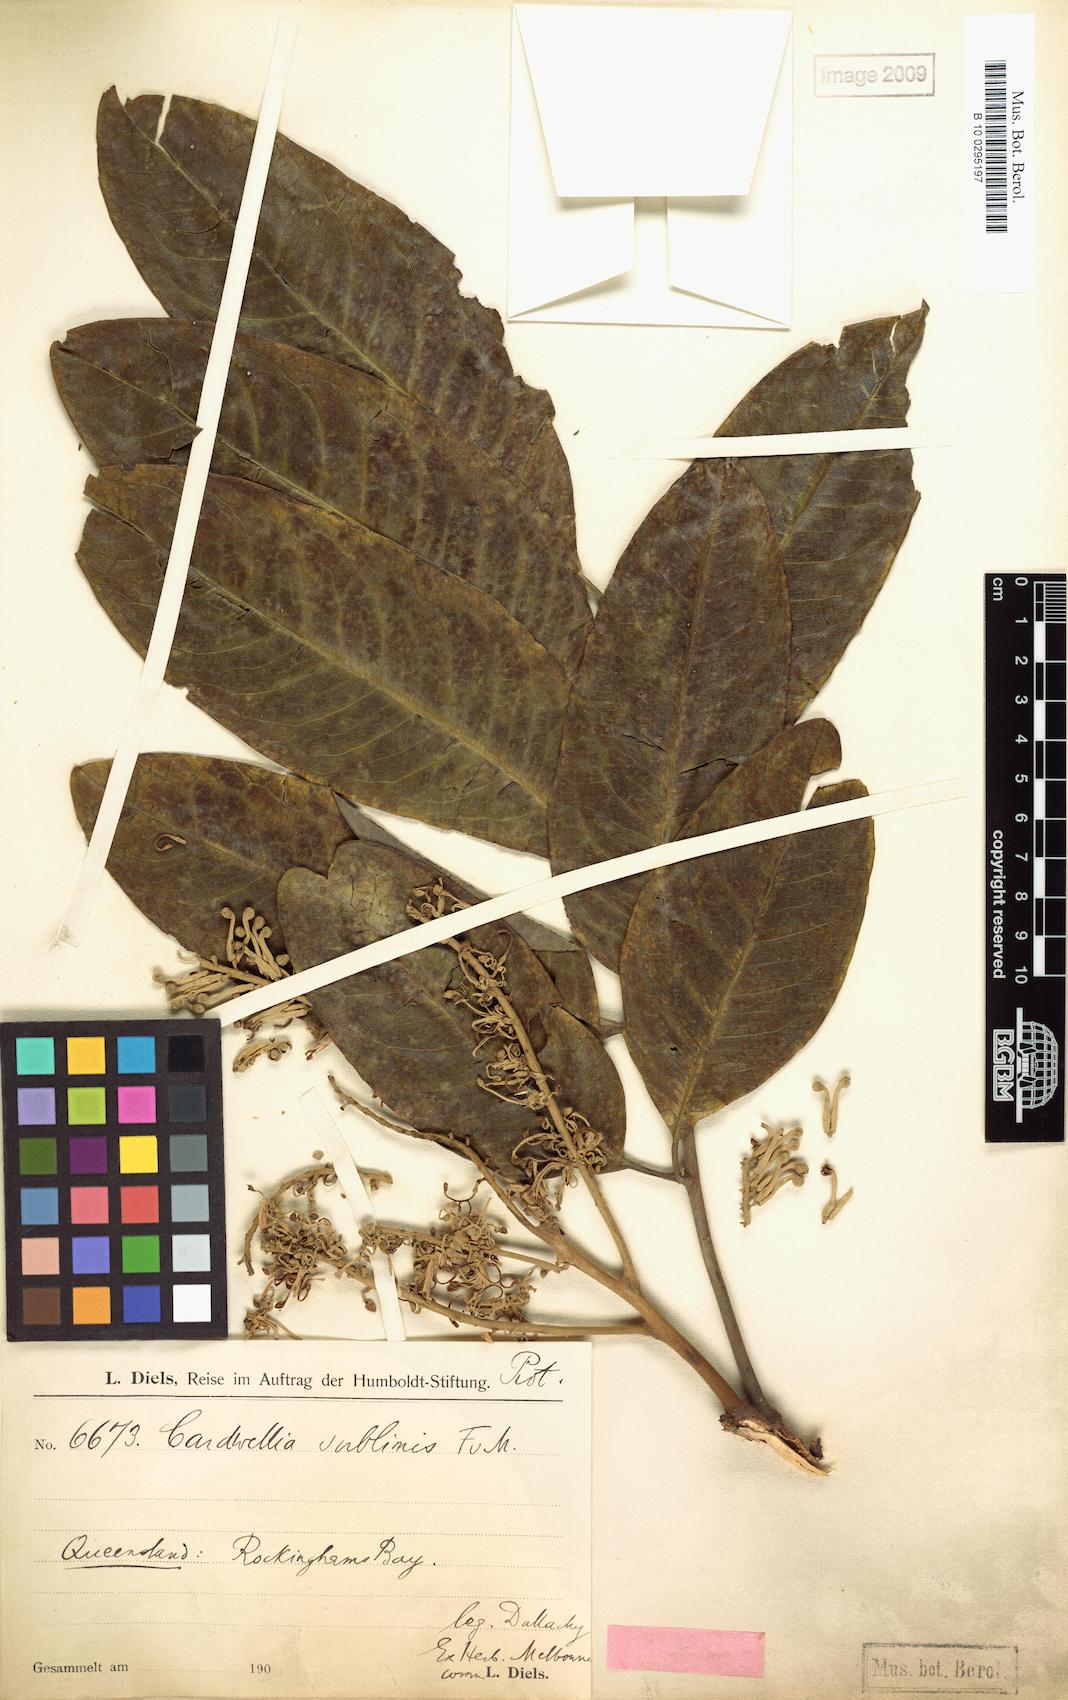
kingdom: Plantae
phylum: Tracheophyta
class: Magnoliopsida
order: Proteales
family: Proteaceae
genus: Cardwellia
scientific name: Cardwellia sublimis
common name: Bull oak
